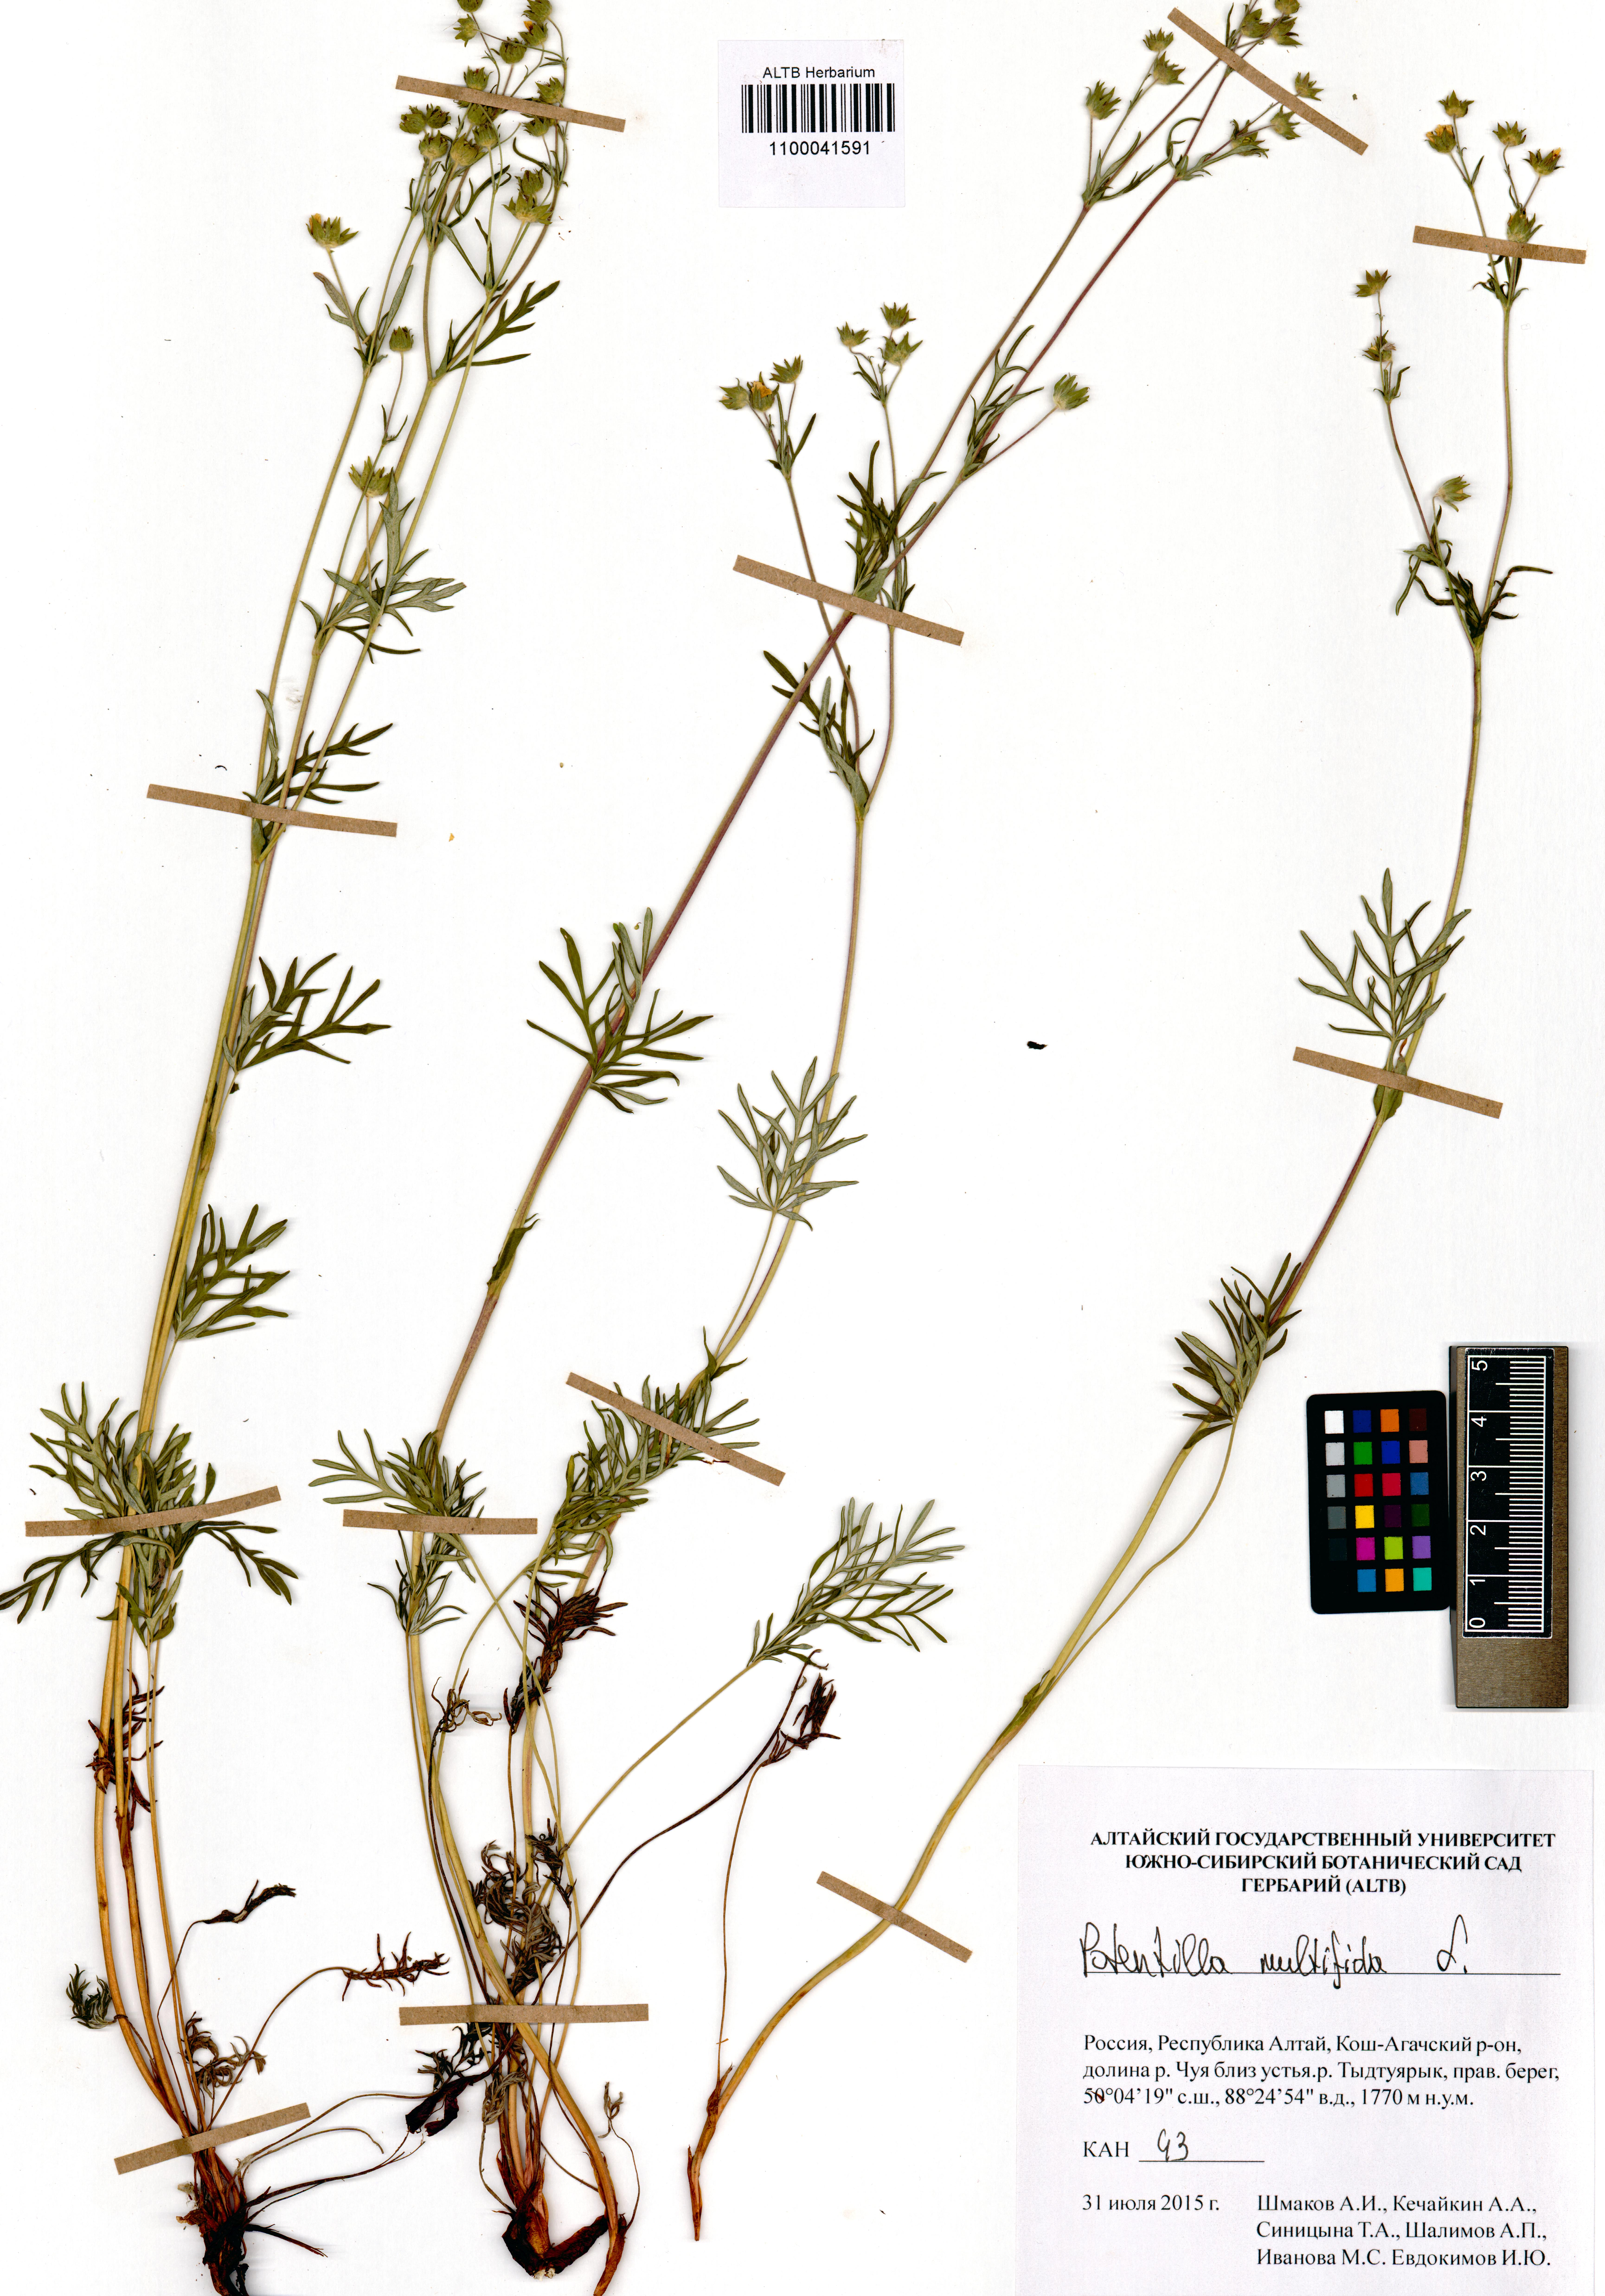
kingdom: Plantae
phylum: Tracheophyta
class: Magnoliopsida
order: Rosales
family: Rosaceae
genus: Potentilla
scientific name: Potentilla multifida
